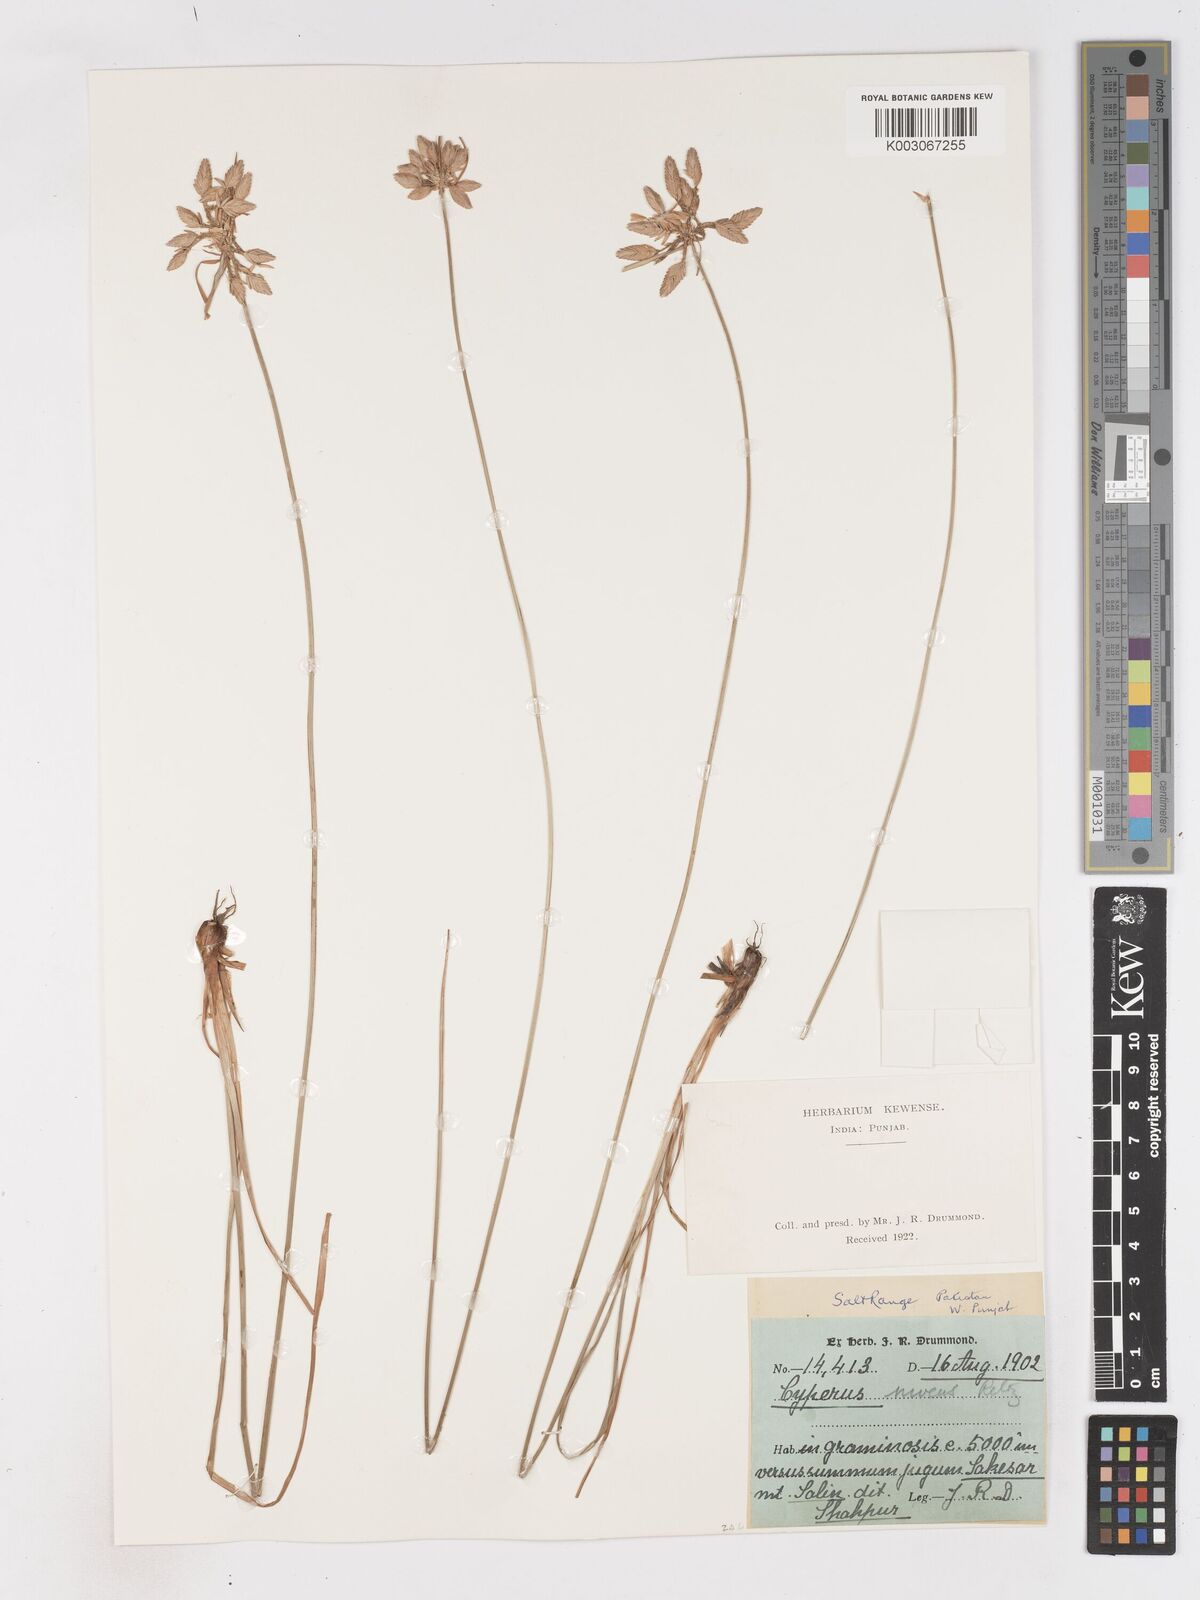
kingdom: Plantae
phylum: Tracheophyta
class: Liliopsida
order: Poales
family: Cyperaceae
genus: Cyperus
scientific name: Cyperus niveus
